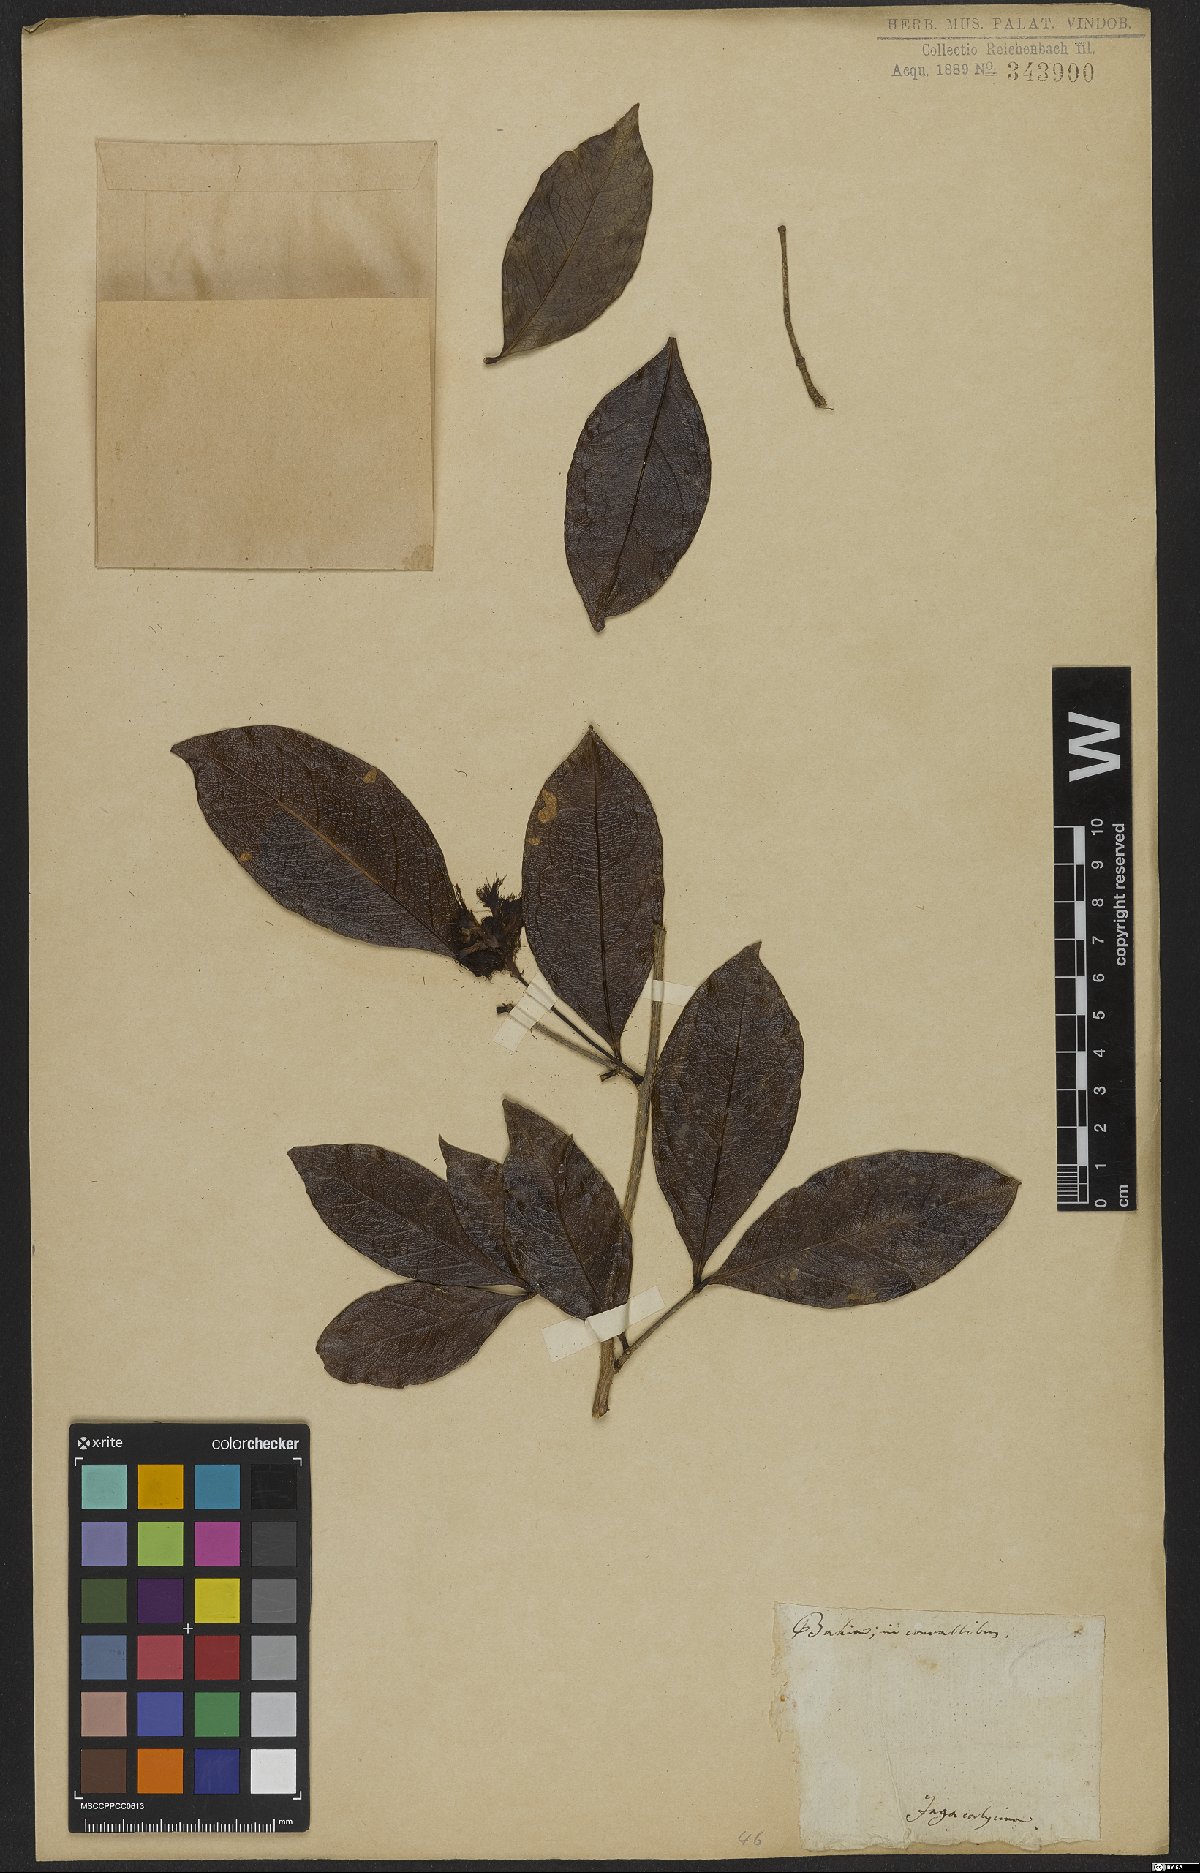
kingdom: Plantae
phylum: Tracheophyta
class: Magnoliopsida
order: Fabales
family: Fabaceae
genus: Inga
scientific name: Inga capitata
